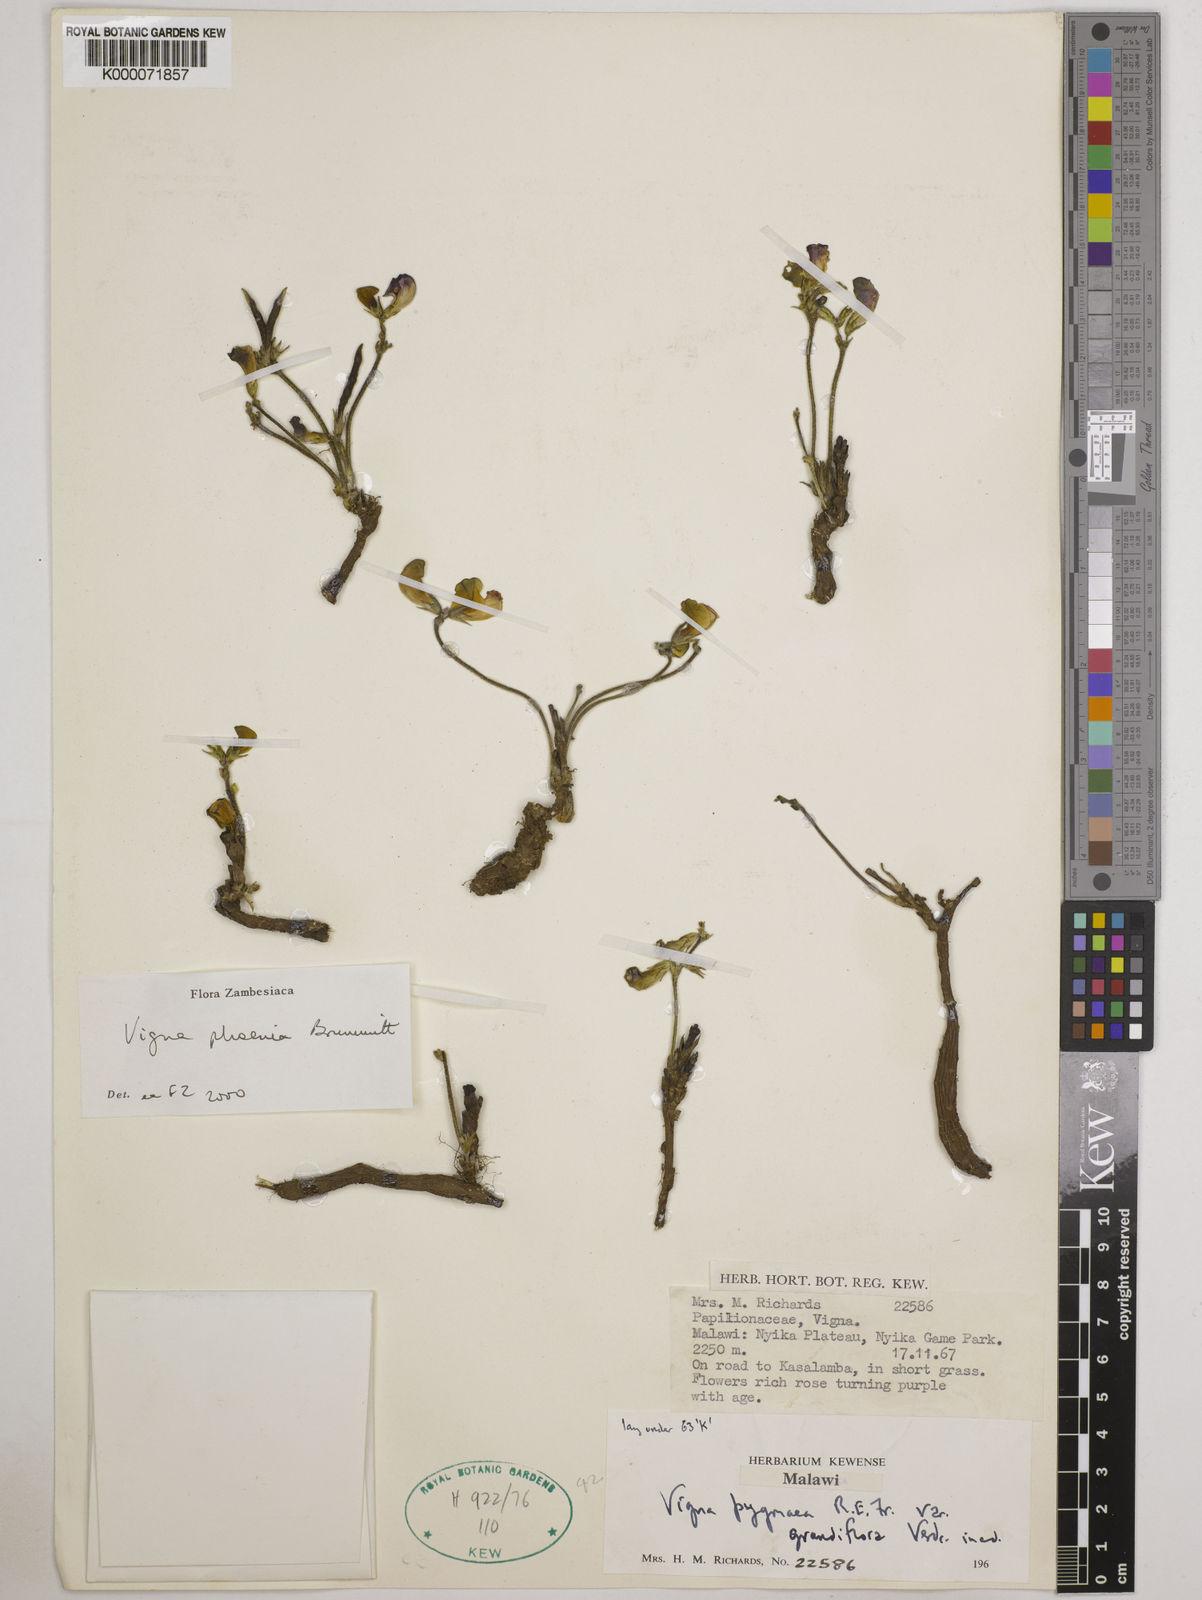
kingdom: Plantae
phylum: Tracheophyta
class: Magnoliopsida
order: Fabales
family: Fabaceae
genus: Vigna
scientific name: Vigna phoenix
